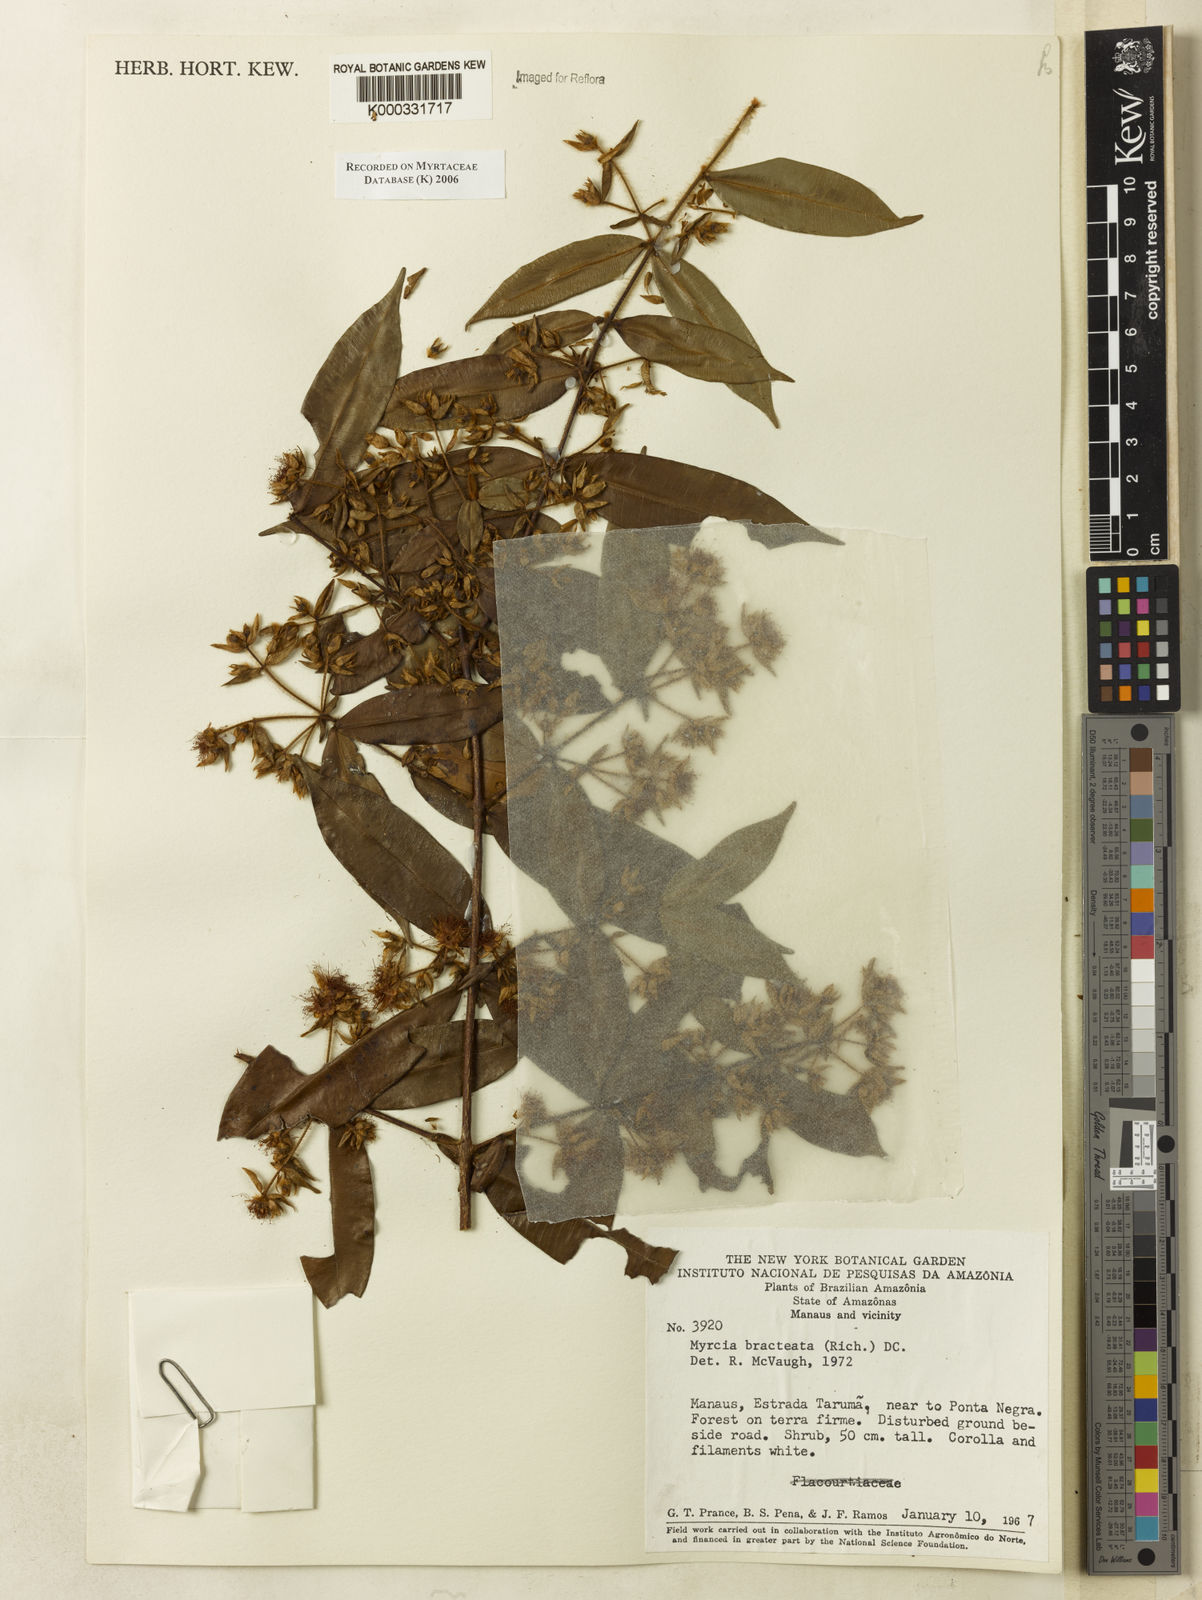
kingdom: Plantae
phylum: Tracheophyta
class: Magnoliopsida
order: Myrtales
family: Myrtaceae
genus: Myrcia
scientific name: Myrcia bracteata
